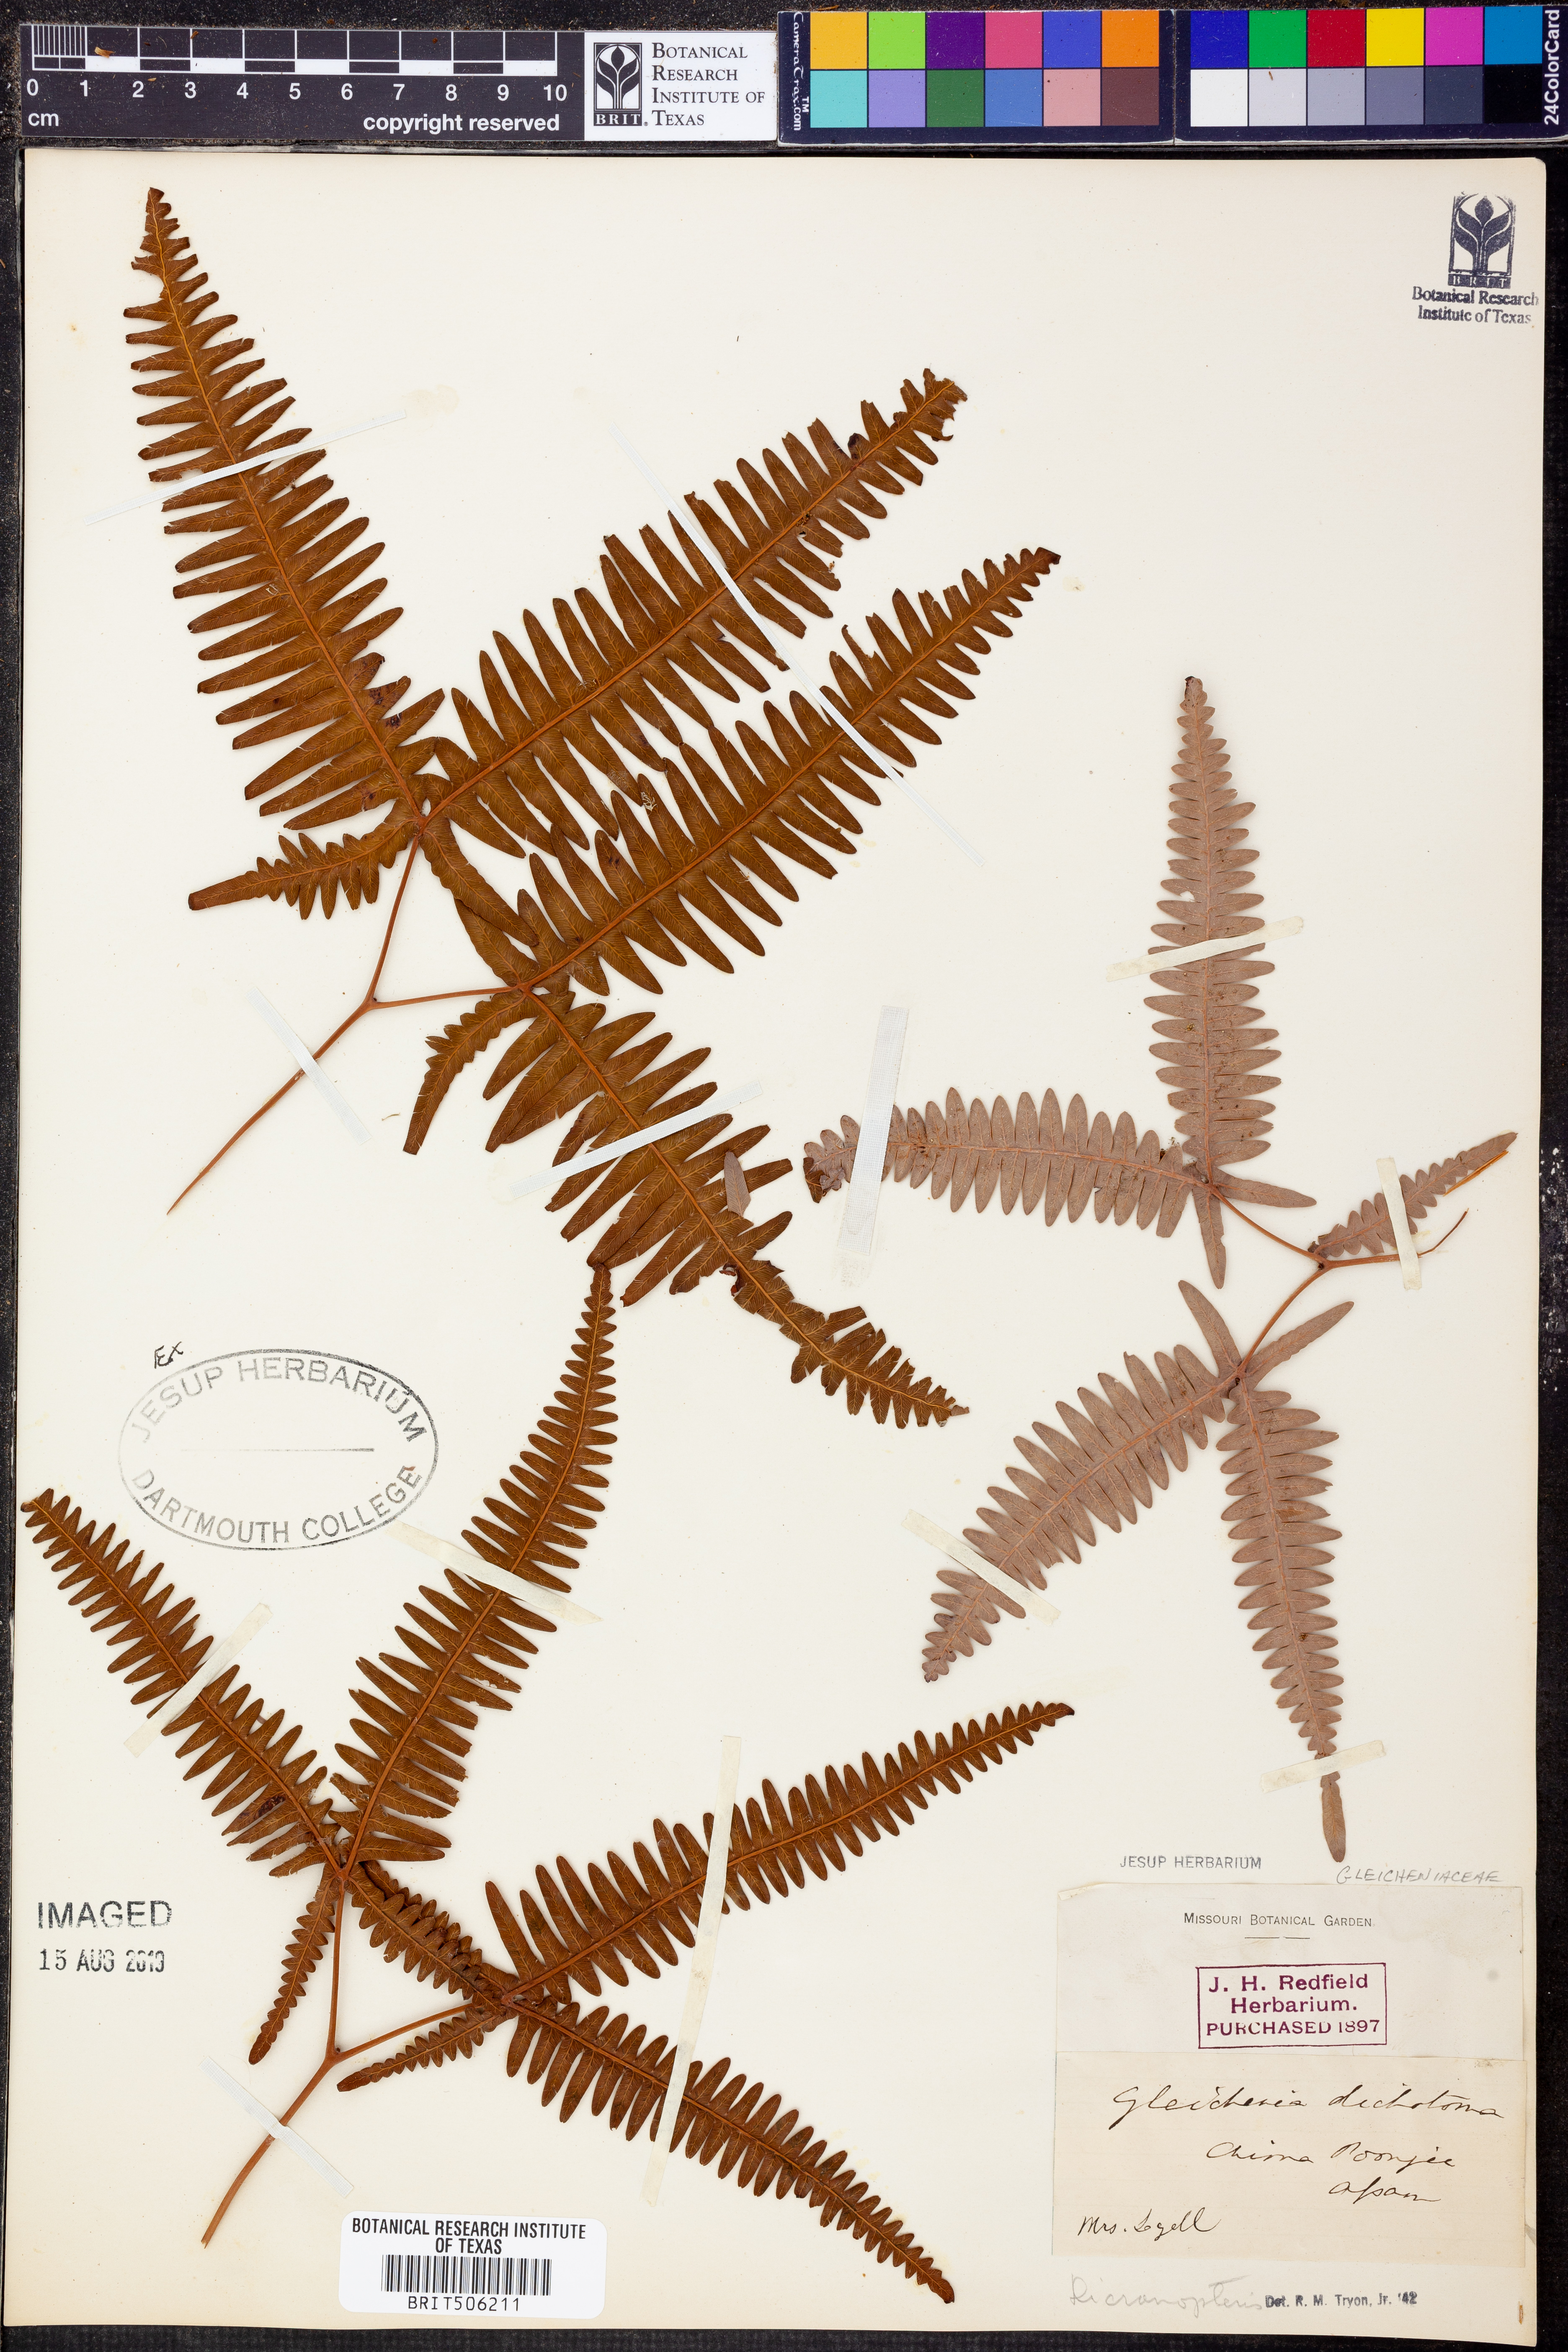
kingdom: Plantae
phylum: Tracheophyta
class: Polypodiopsida
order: Gleicheniales
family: Gleicheniaceae
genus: Dicranopteris
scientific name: Dicranopteris dichotoma
